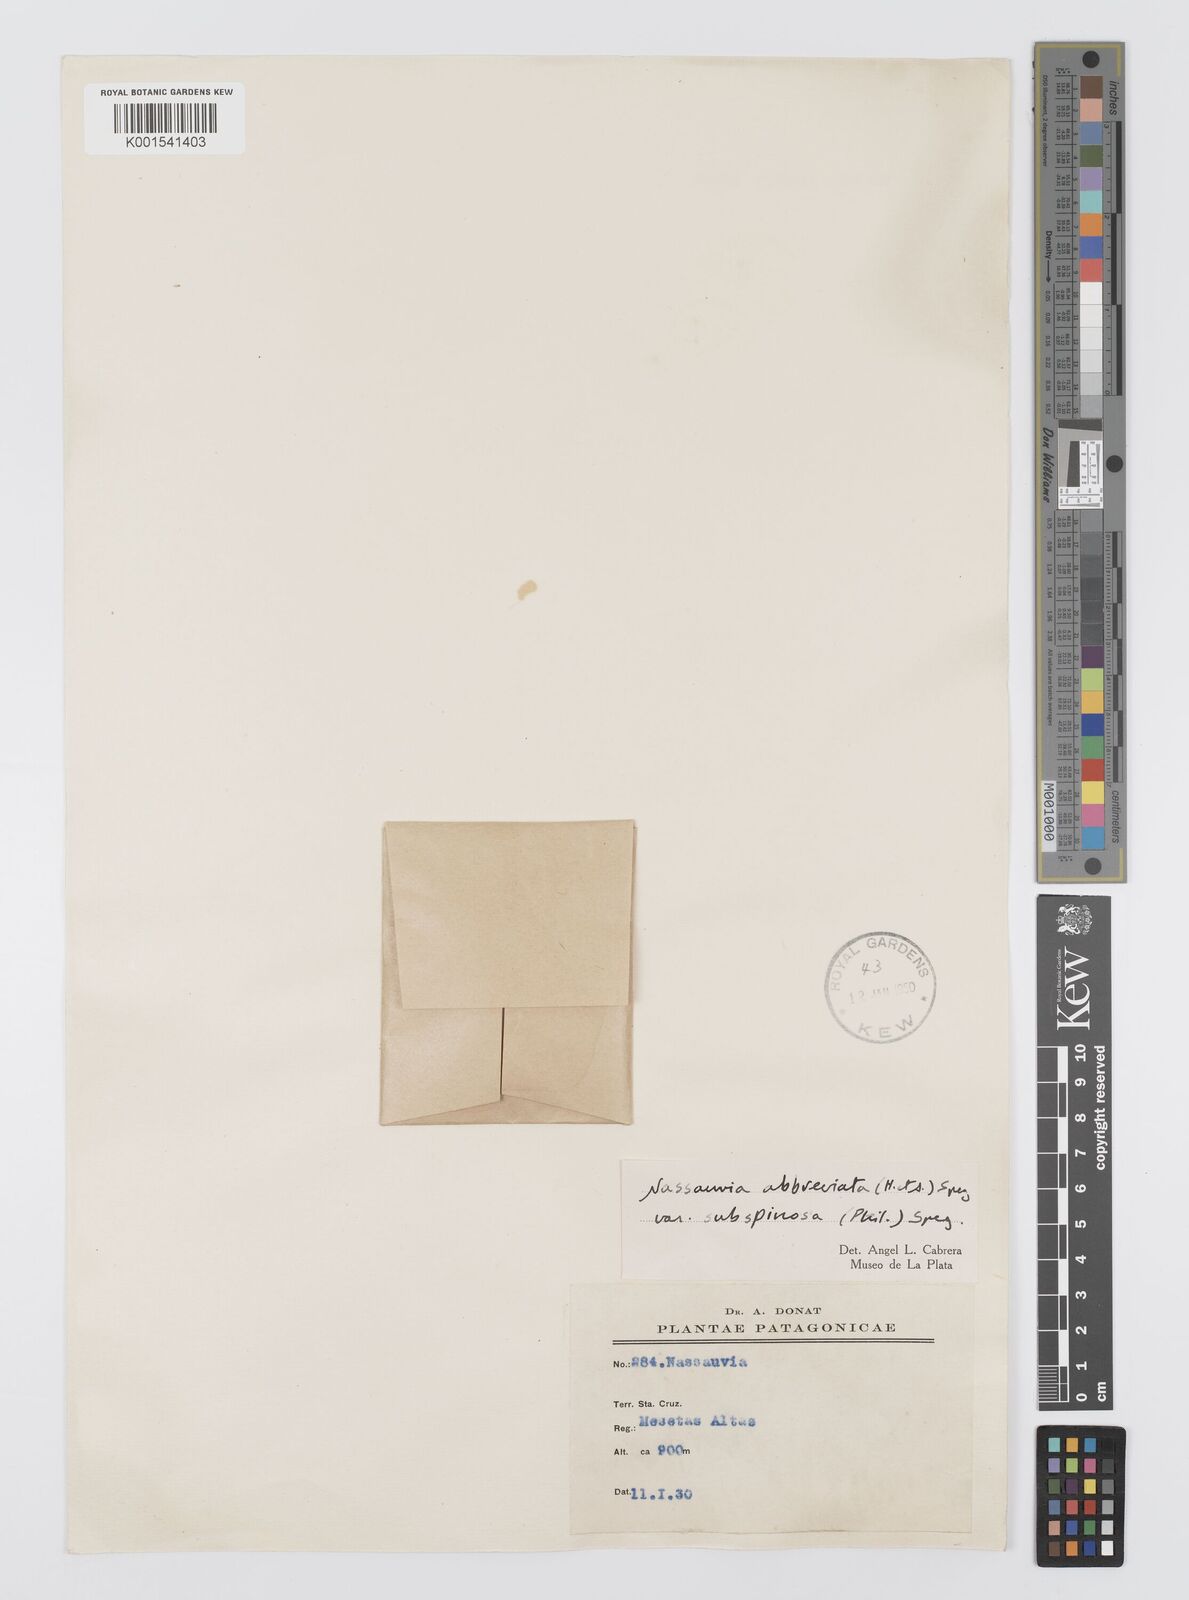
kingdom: Plantae
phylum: Tracheophyta
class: Magnoliopsida
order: Asterales
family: Asteraceae
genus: Nassauvia
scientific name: Nassauvia aculeata
